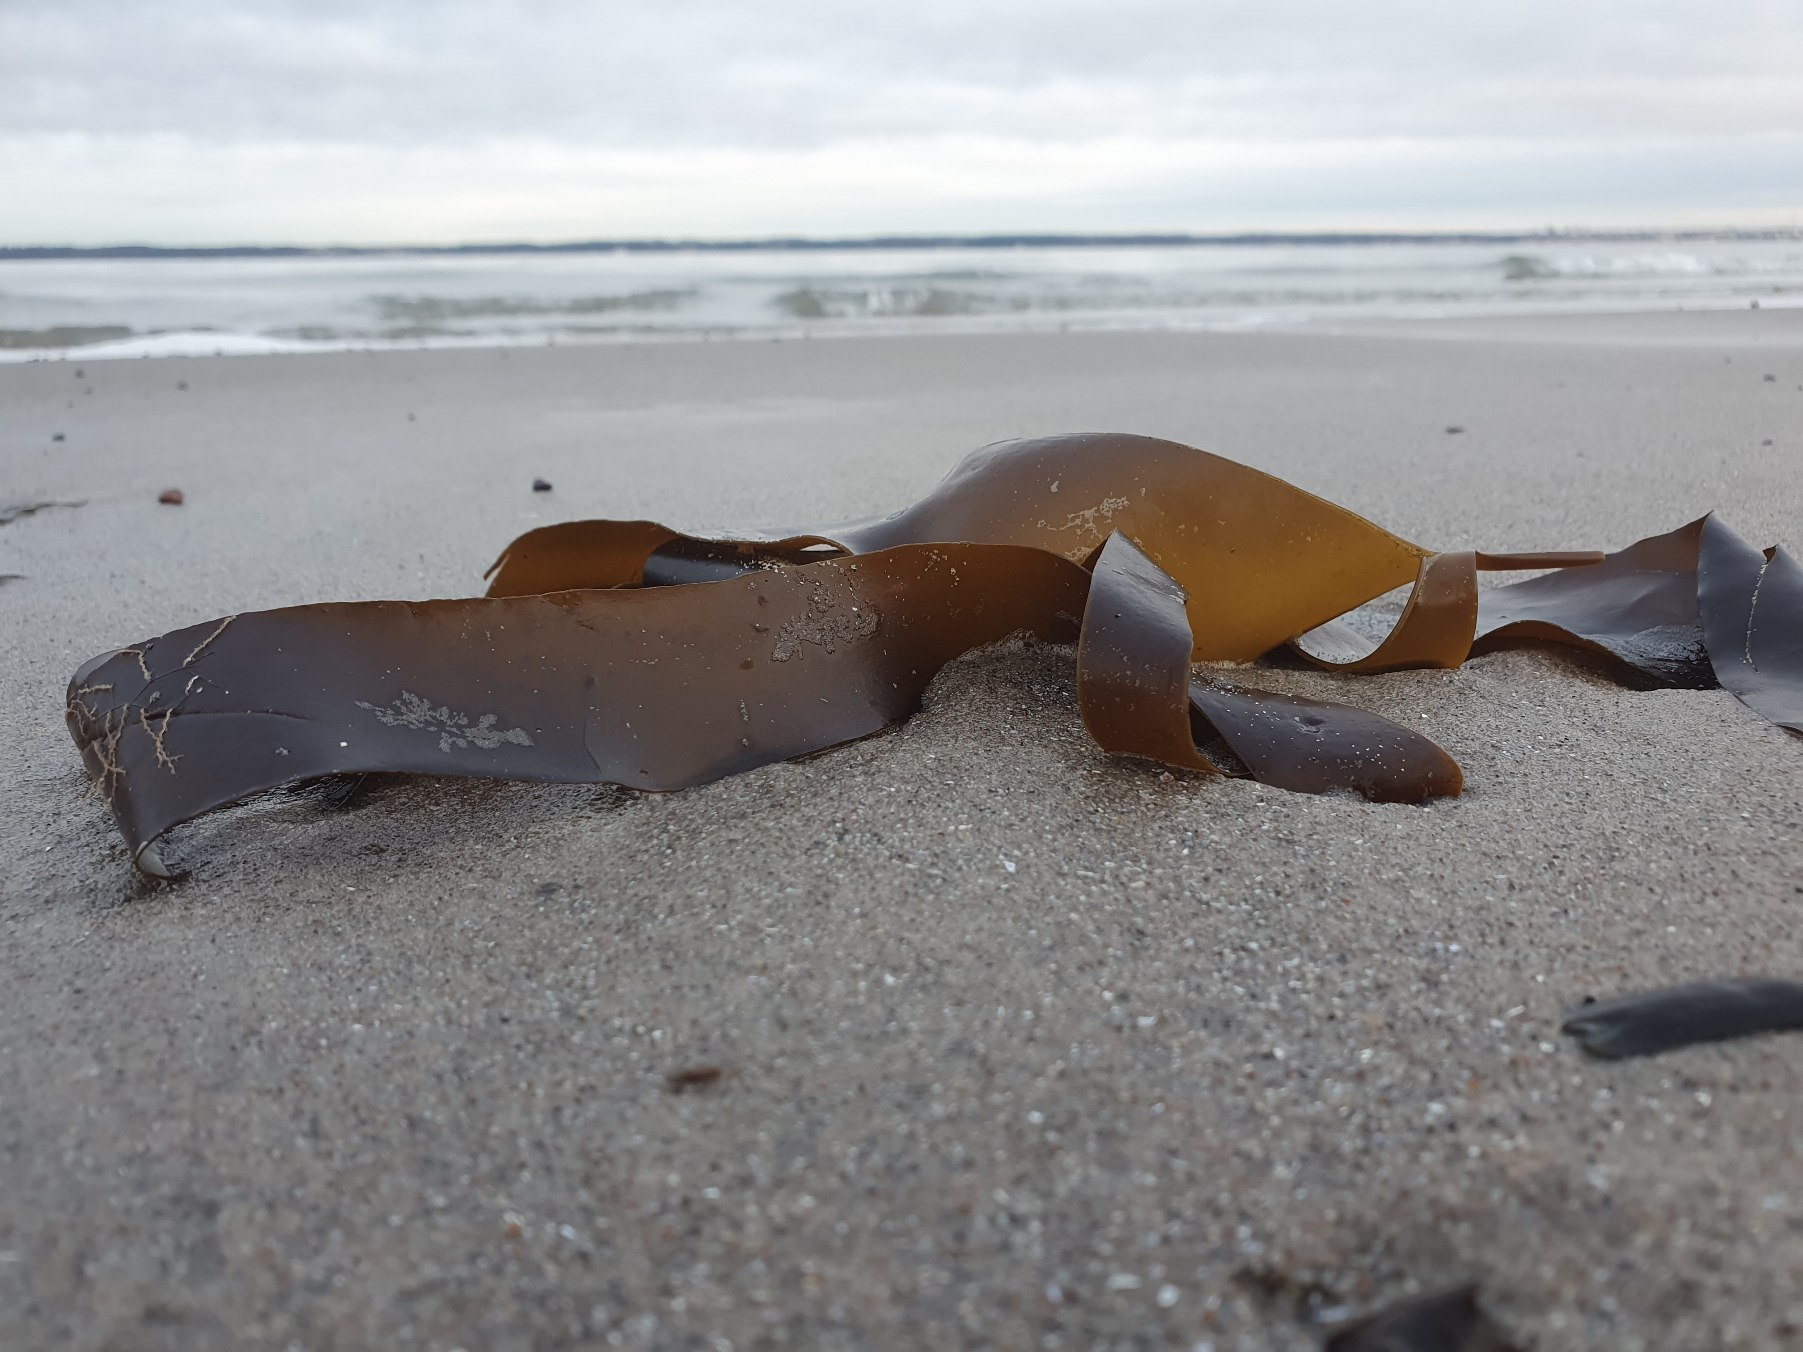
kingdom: Chromista
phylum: Ochrophyta
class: Phaeophyceae
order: Laminariales
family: Laminariaceae
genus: Saccharina
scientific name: Saccharina latissima
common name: Sukkertang
